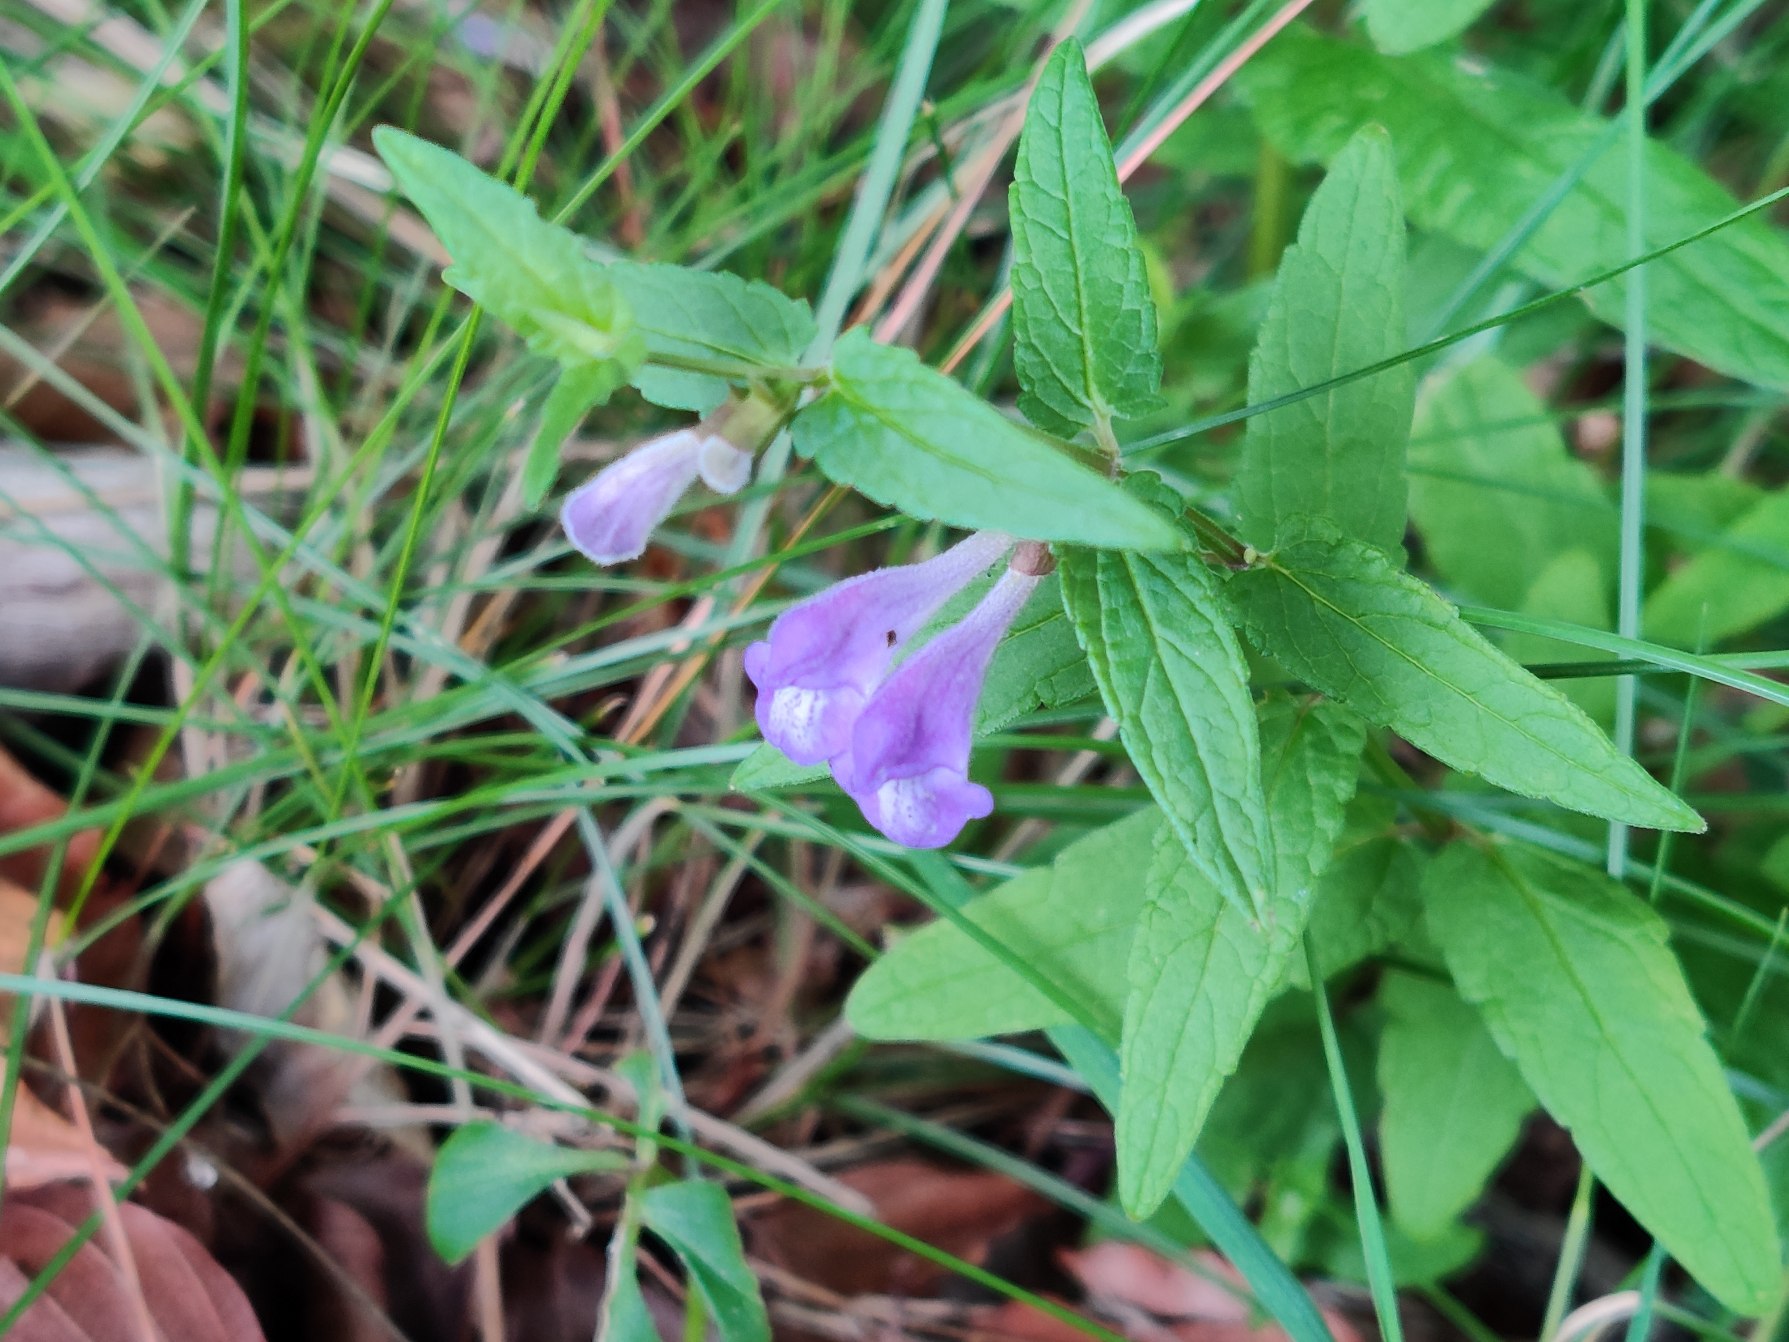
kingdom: Plantae
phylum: Tracheophyta
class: Magnoliopsida
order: Lamiales
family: Lamiaceae
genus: Scutellaria
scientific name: Scutellaria galericulata
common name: Almindelig skjolddrager
